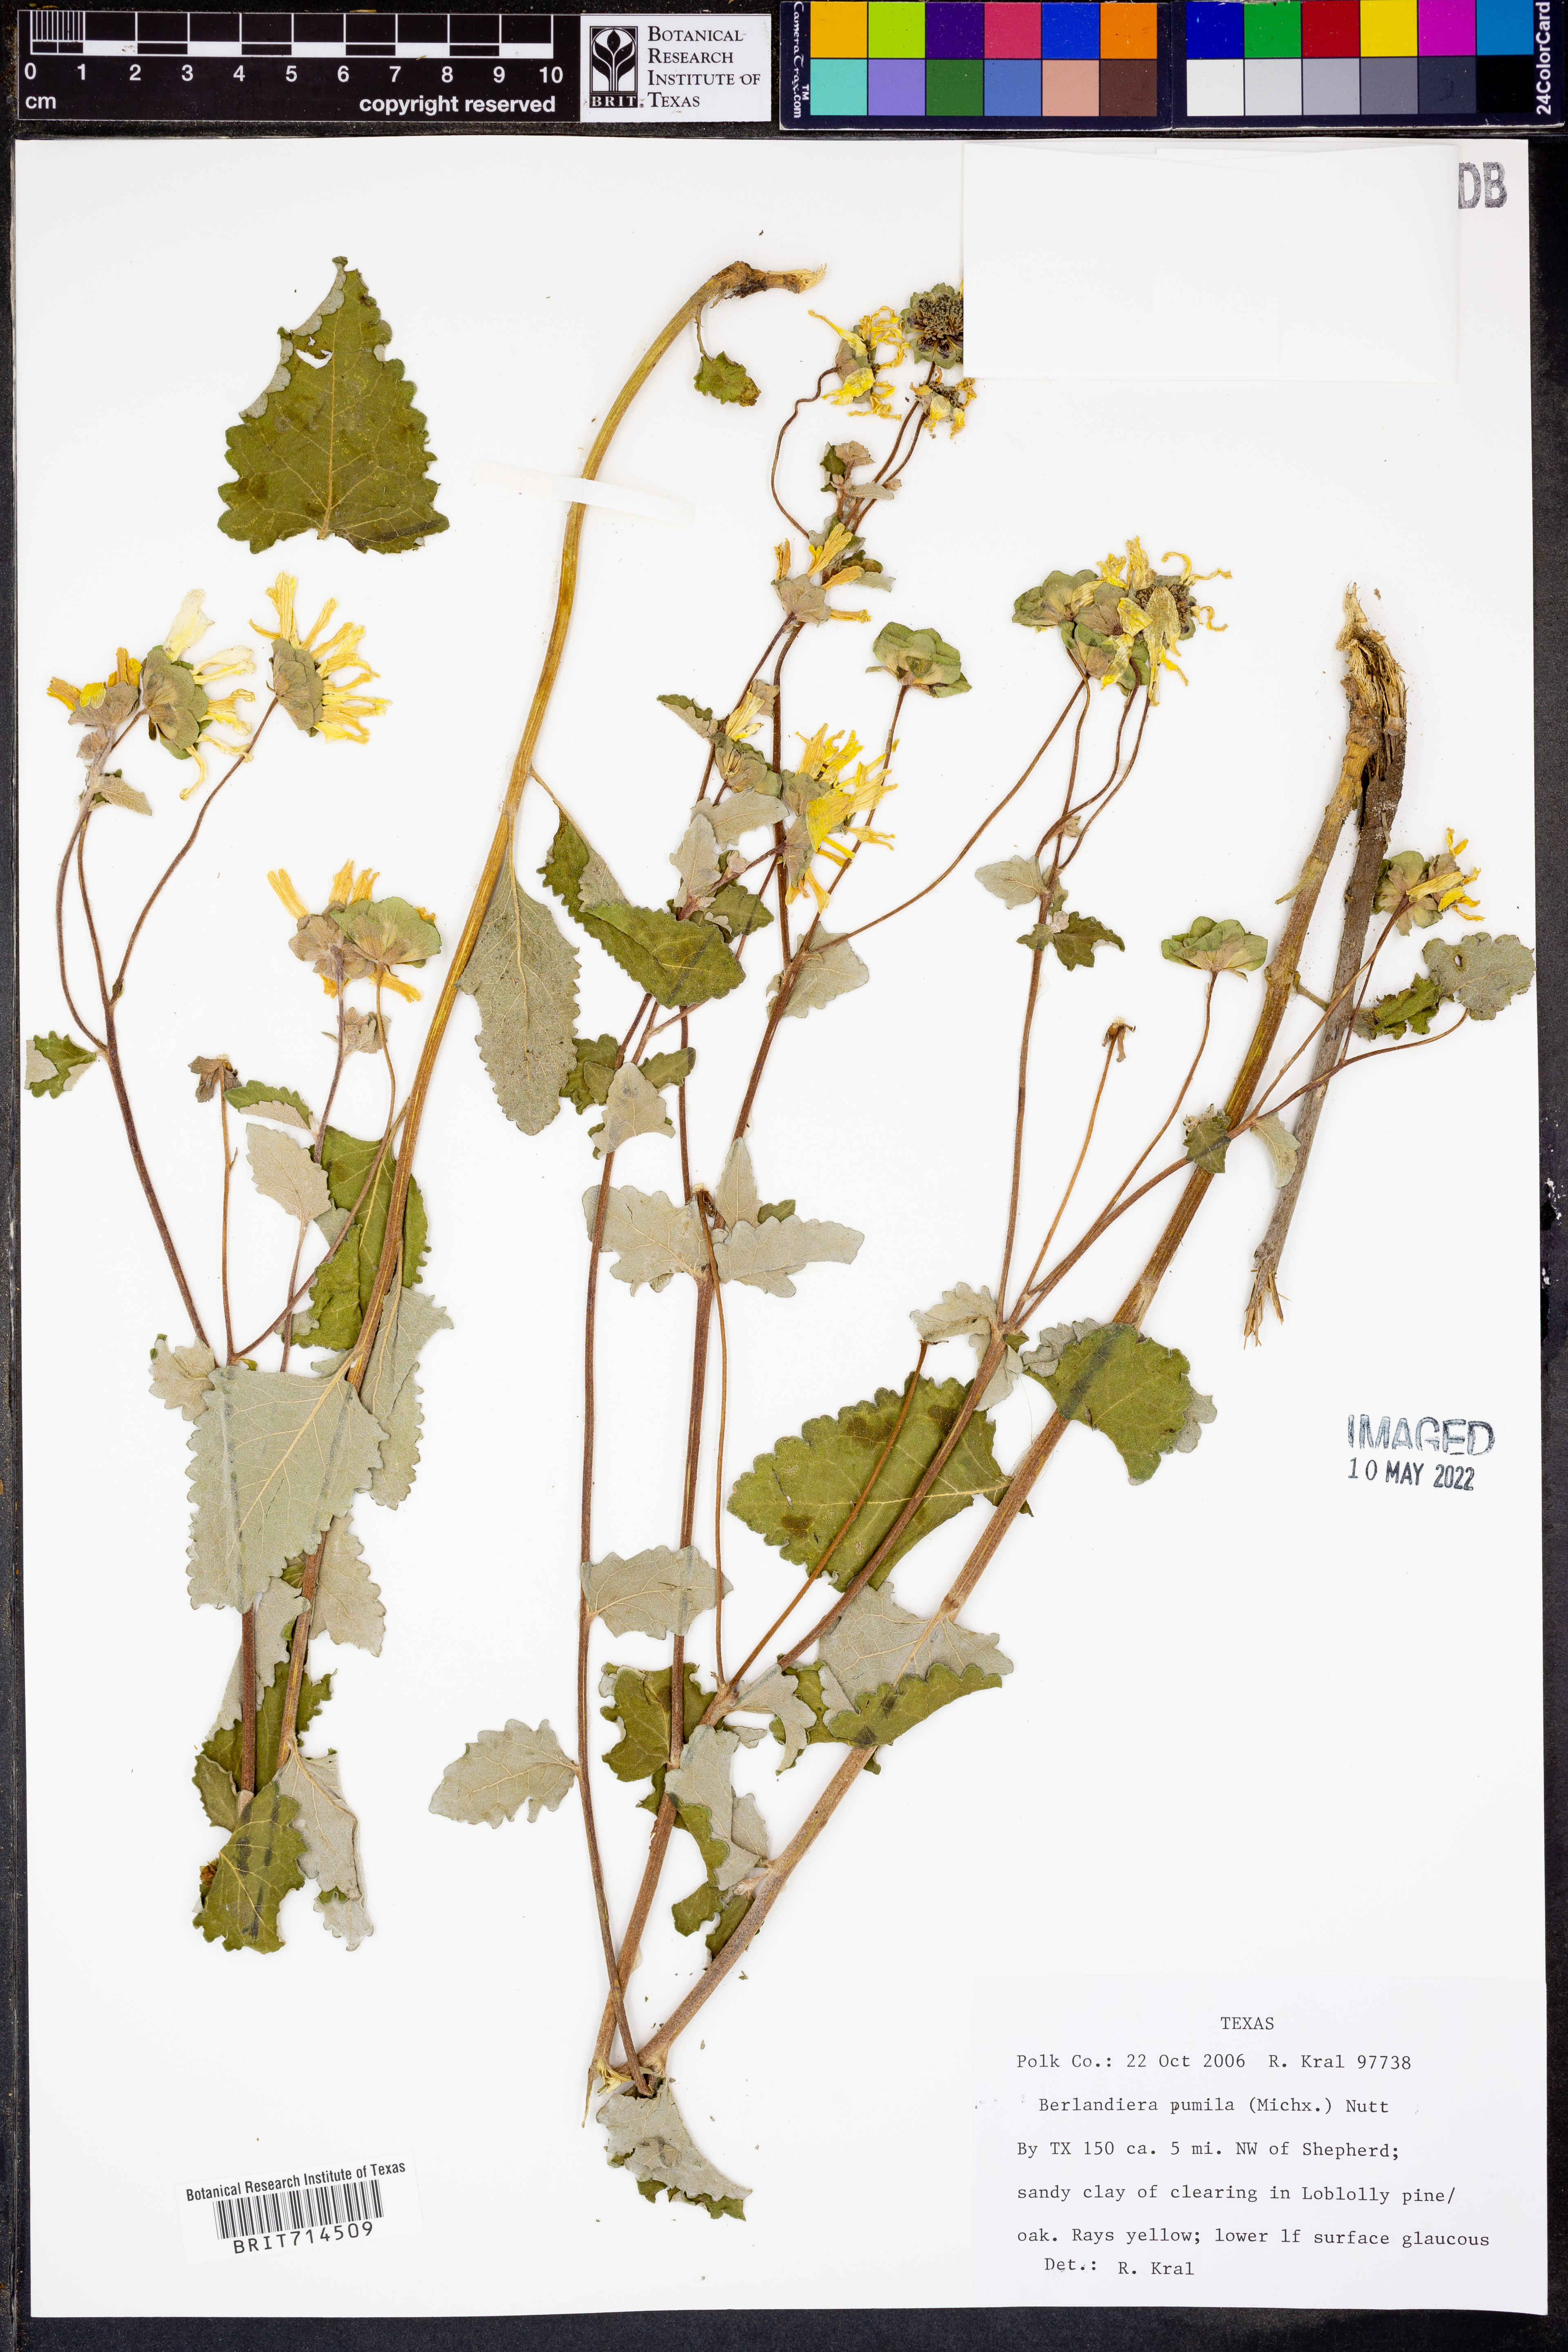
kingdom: Plantae
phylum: Tracheophyta
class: Magnoliopsida
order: Asterales
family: Asteraceae
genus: Berlandiera
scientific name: Berlandiera pumila
